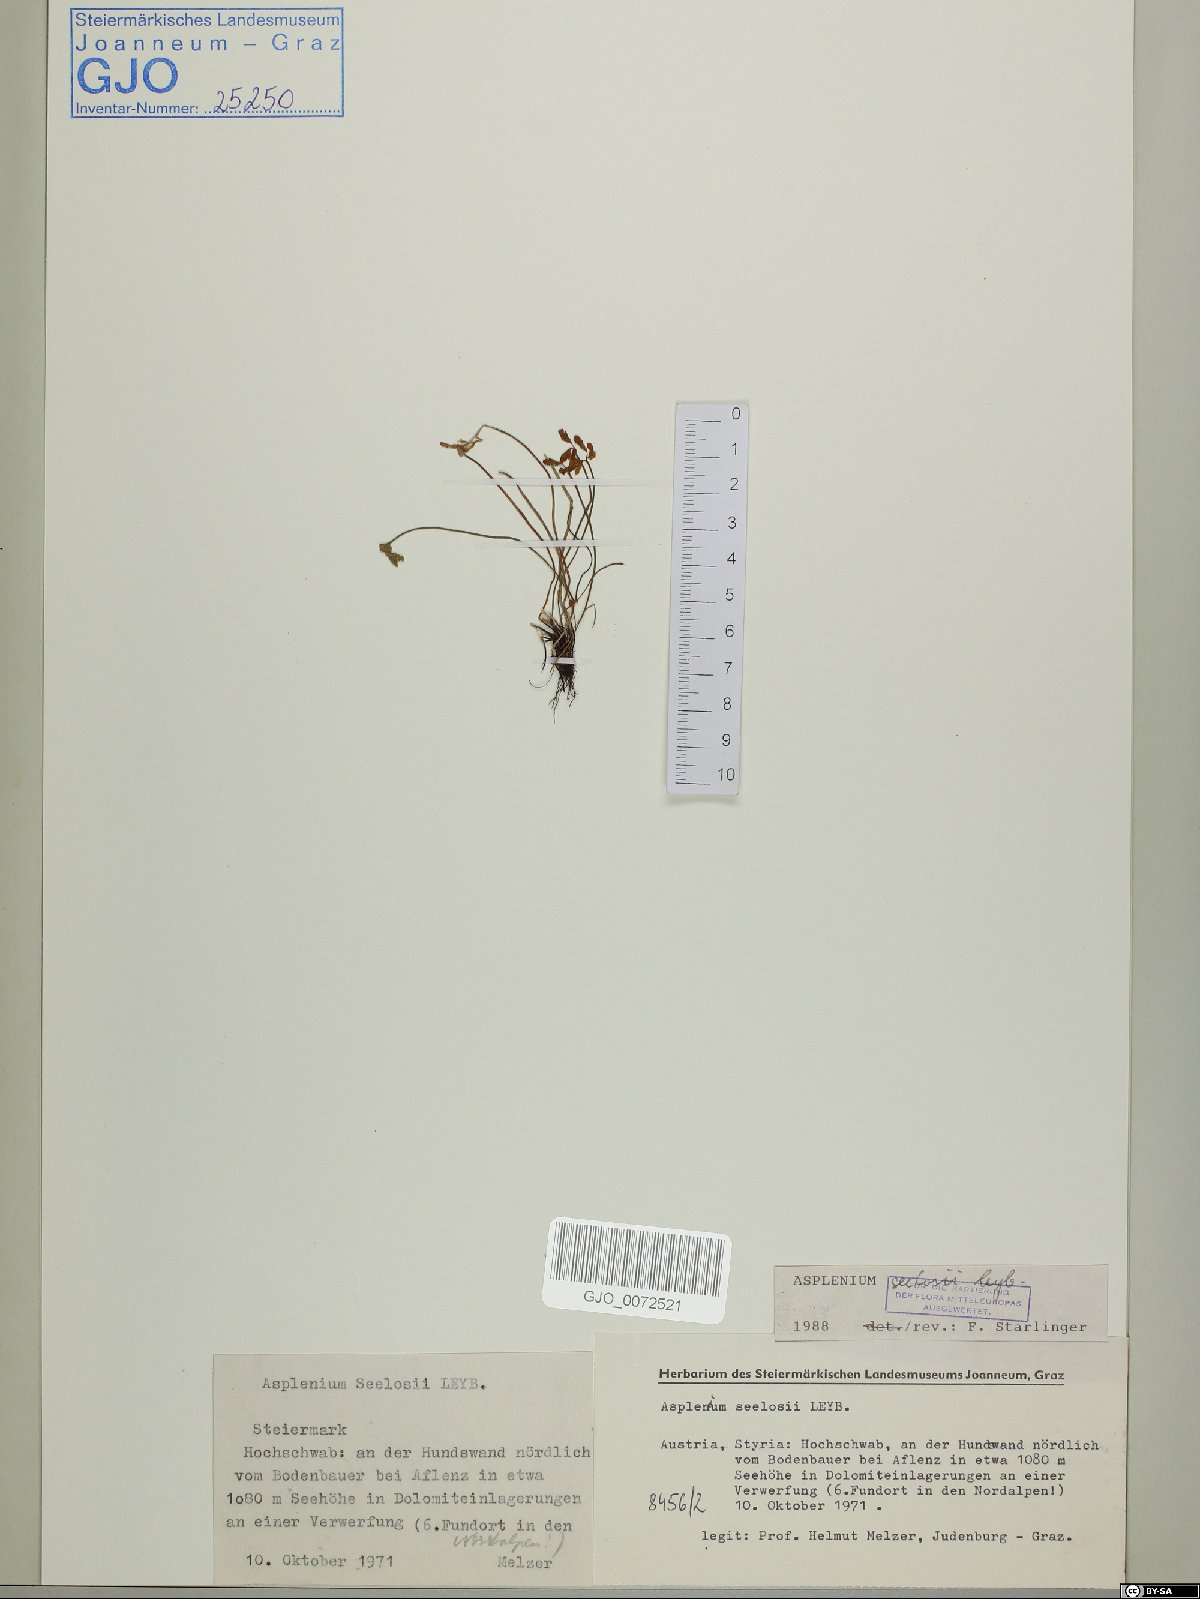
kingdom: Plantae
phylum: Tracheophyta
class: Polypodiopsida
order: Polypodiales
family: Aspleniaceae
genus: Asplenium
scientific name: Asplenium seelosii
